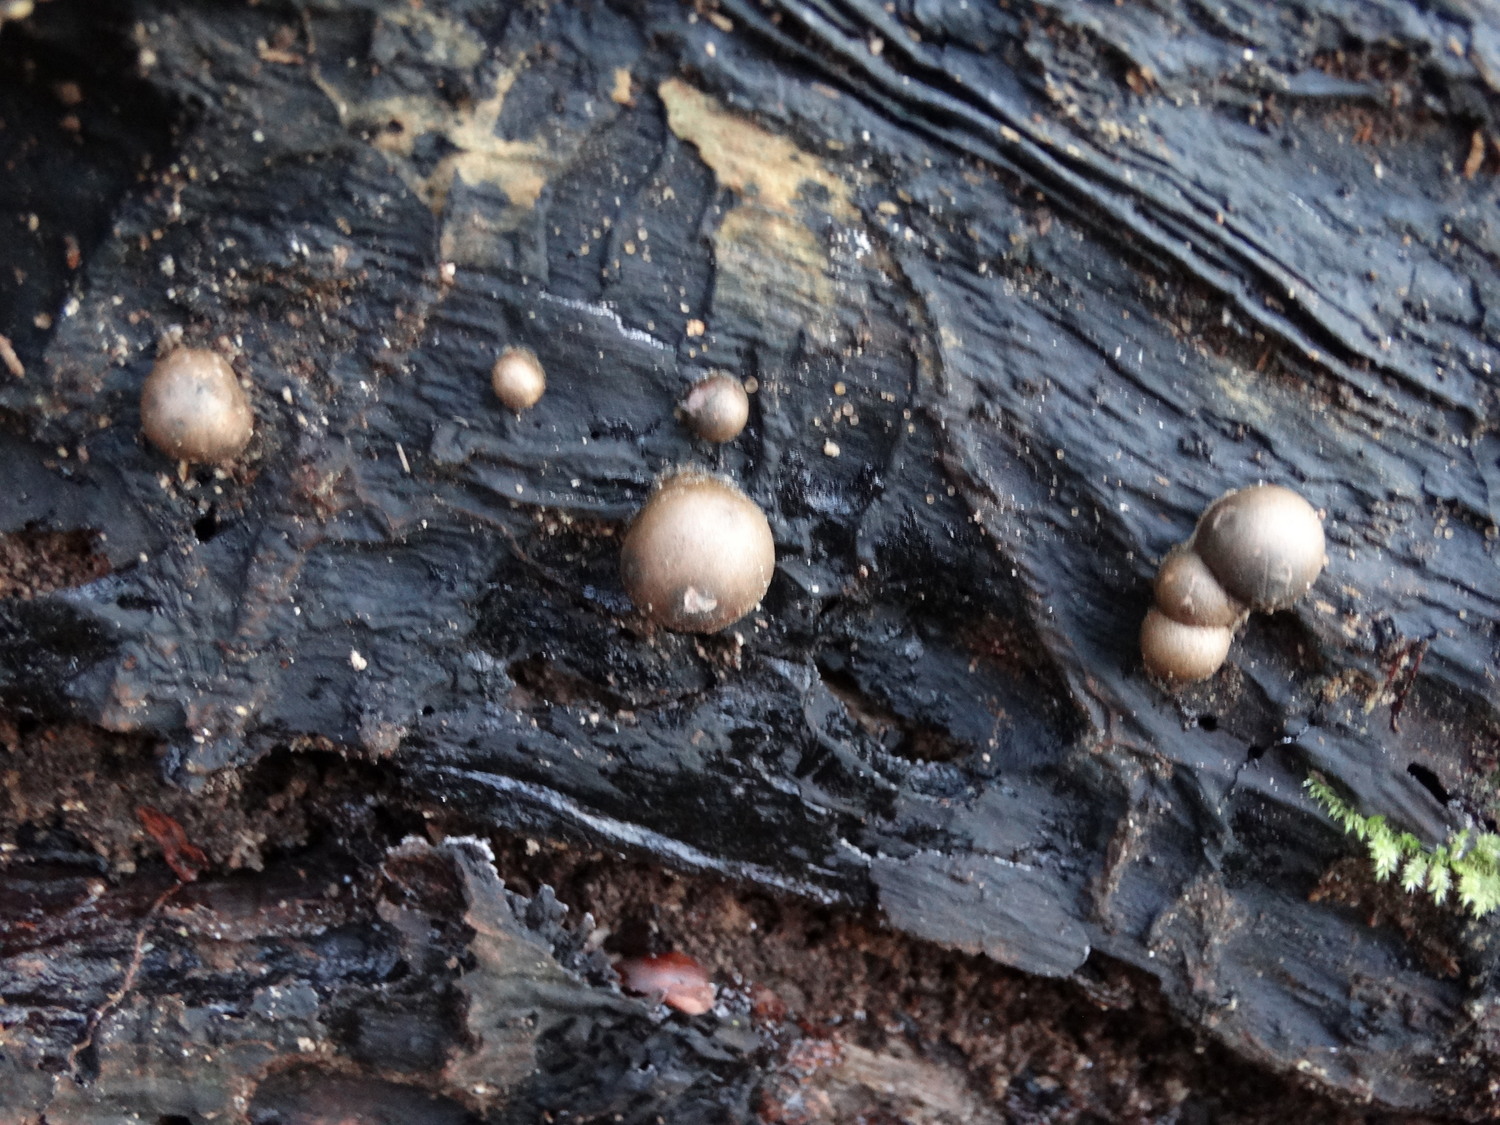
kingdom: Protozoa
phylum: Mycetozoa
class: Myxomycetes
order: Cribrariales
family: Tubiferaceae
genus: Lycogala
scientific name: Lycogala epidendrum
